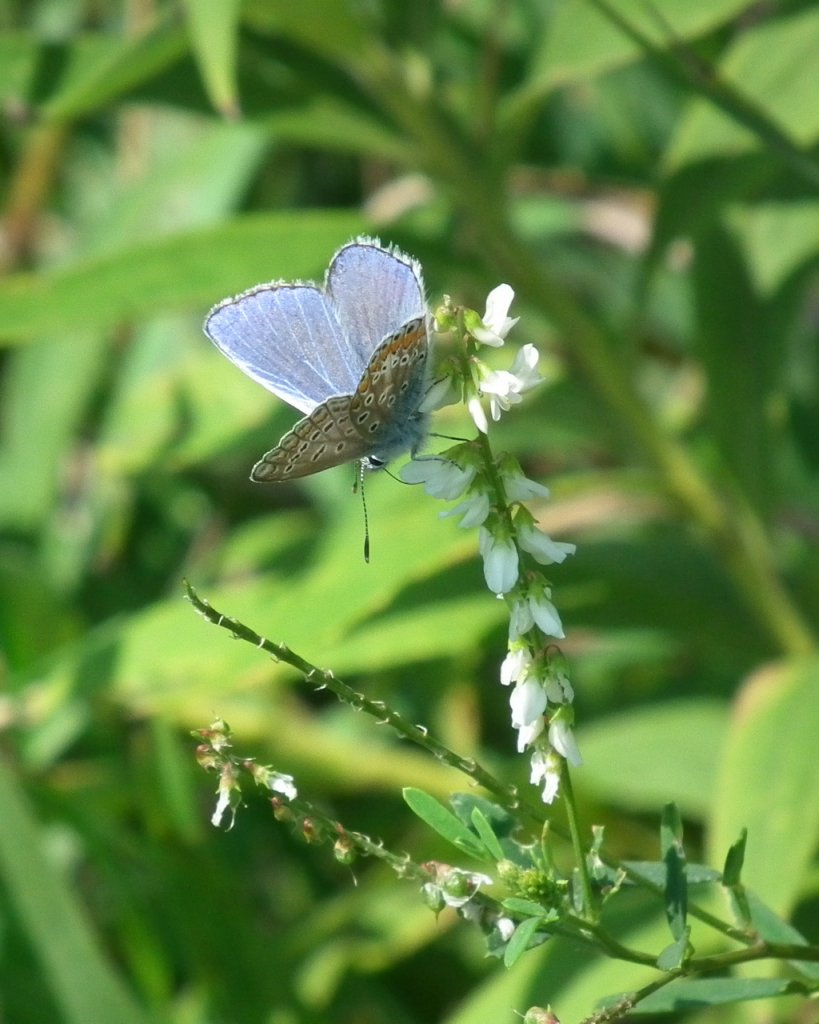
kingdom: Animalia
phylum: Arthropoda
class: Insecta
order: Lepidoptera
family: Lycaenidae
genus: Polyommatus
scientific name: Polyommatus icarus
